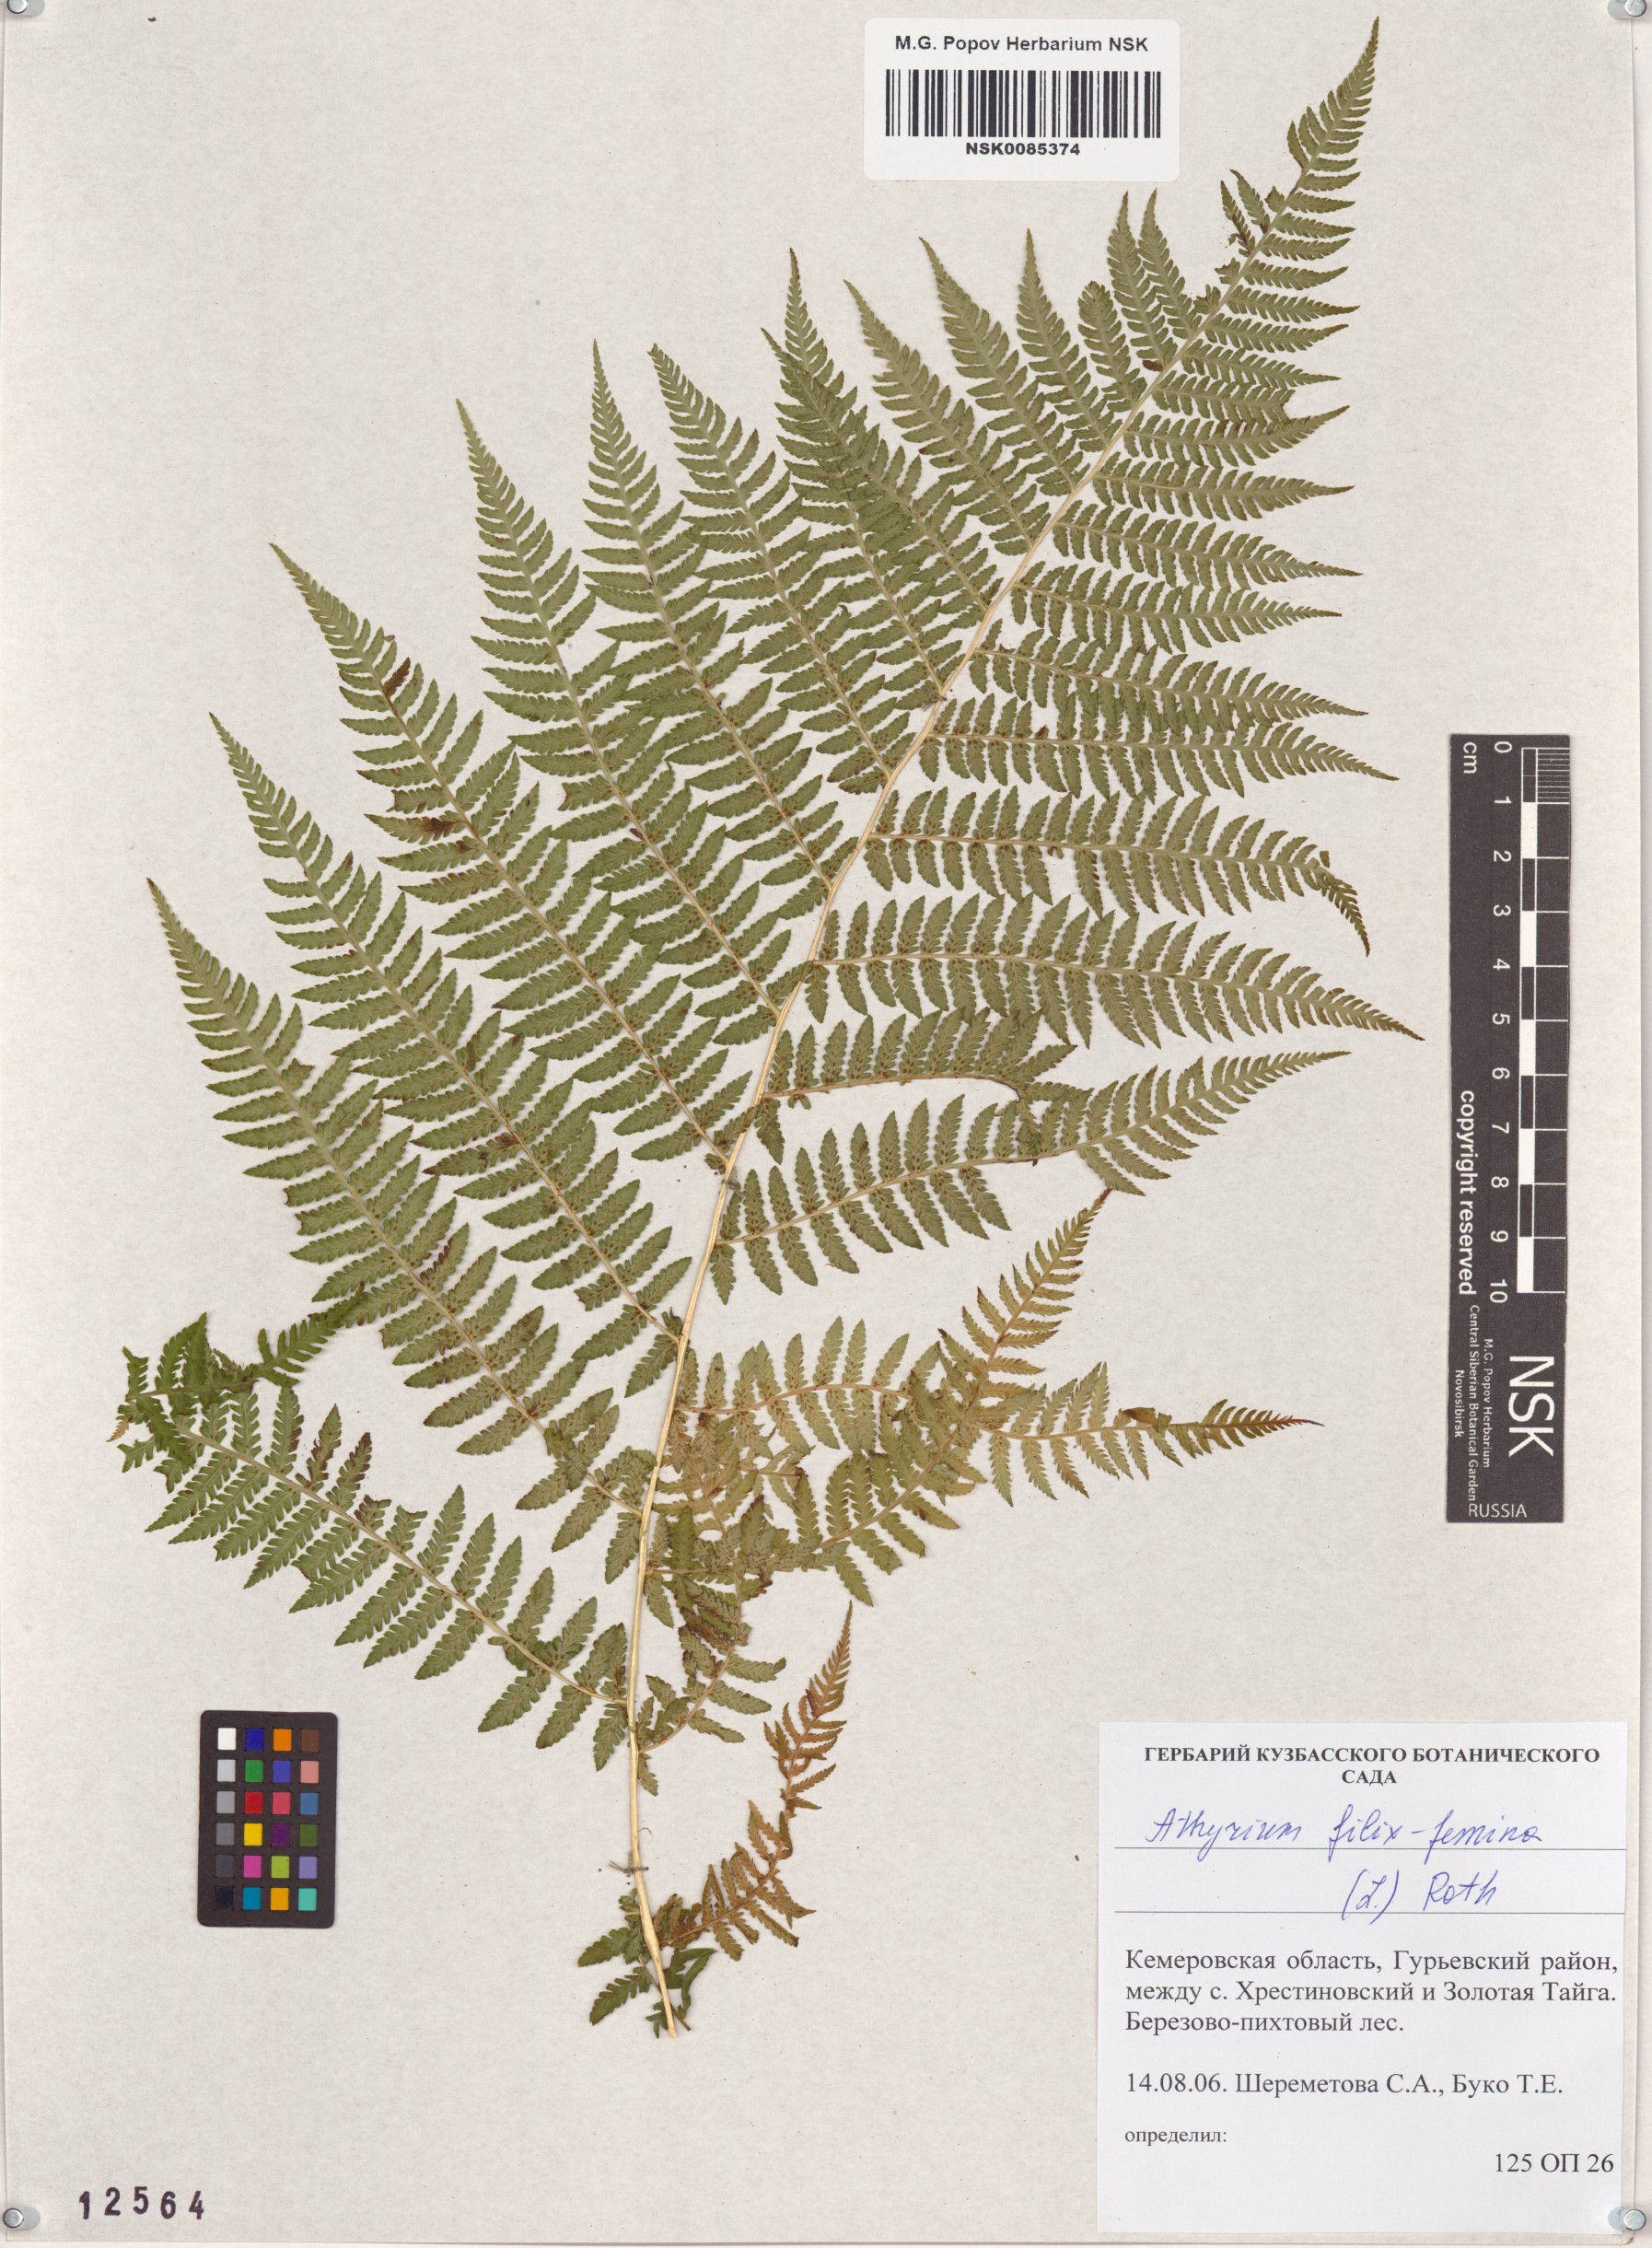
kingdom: Plantae
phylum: Tracheophyta
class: Polypodiopsida
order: Polypodiales
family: Athyriaceae
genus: Athyrium
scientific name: Athyrium filix-femina
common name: Lady fern
